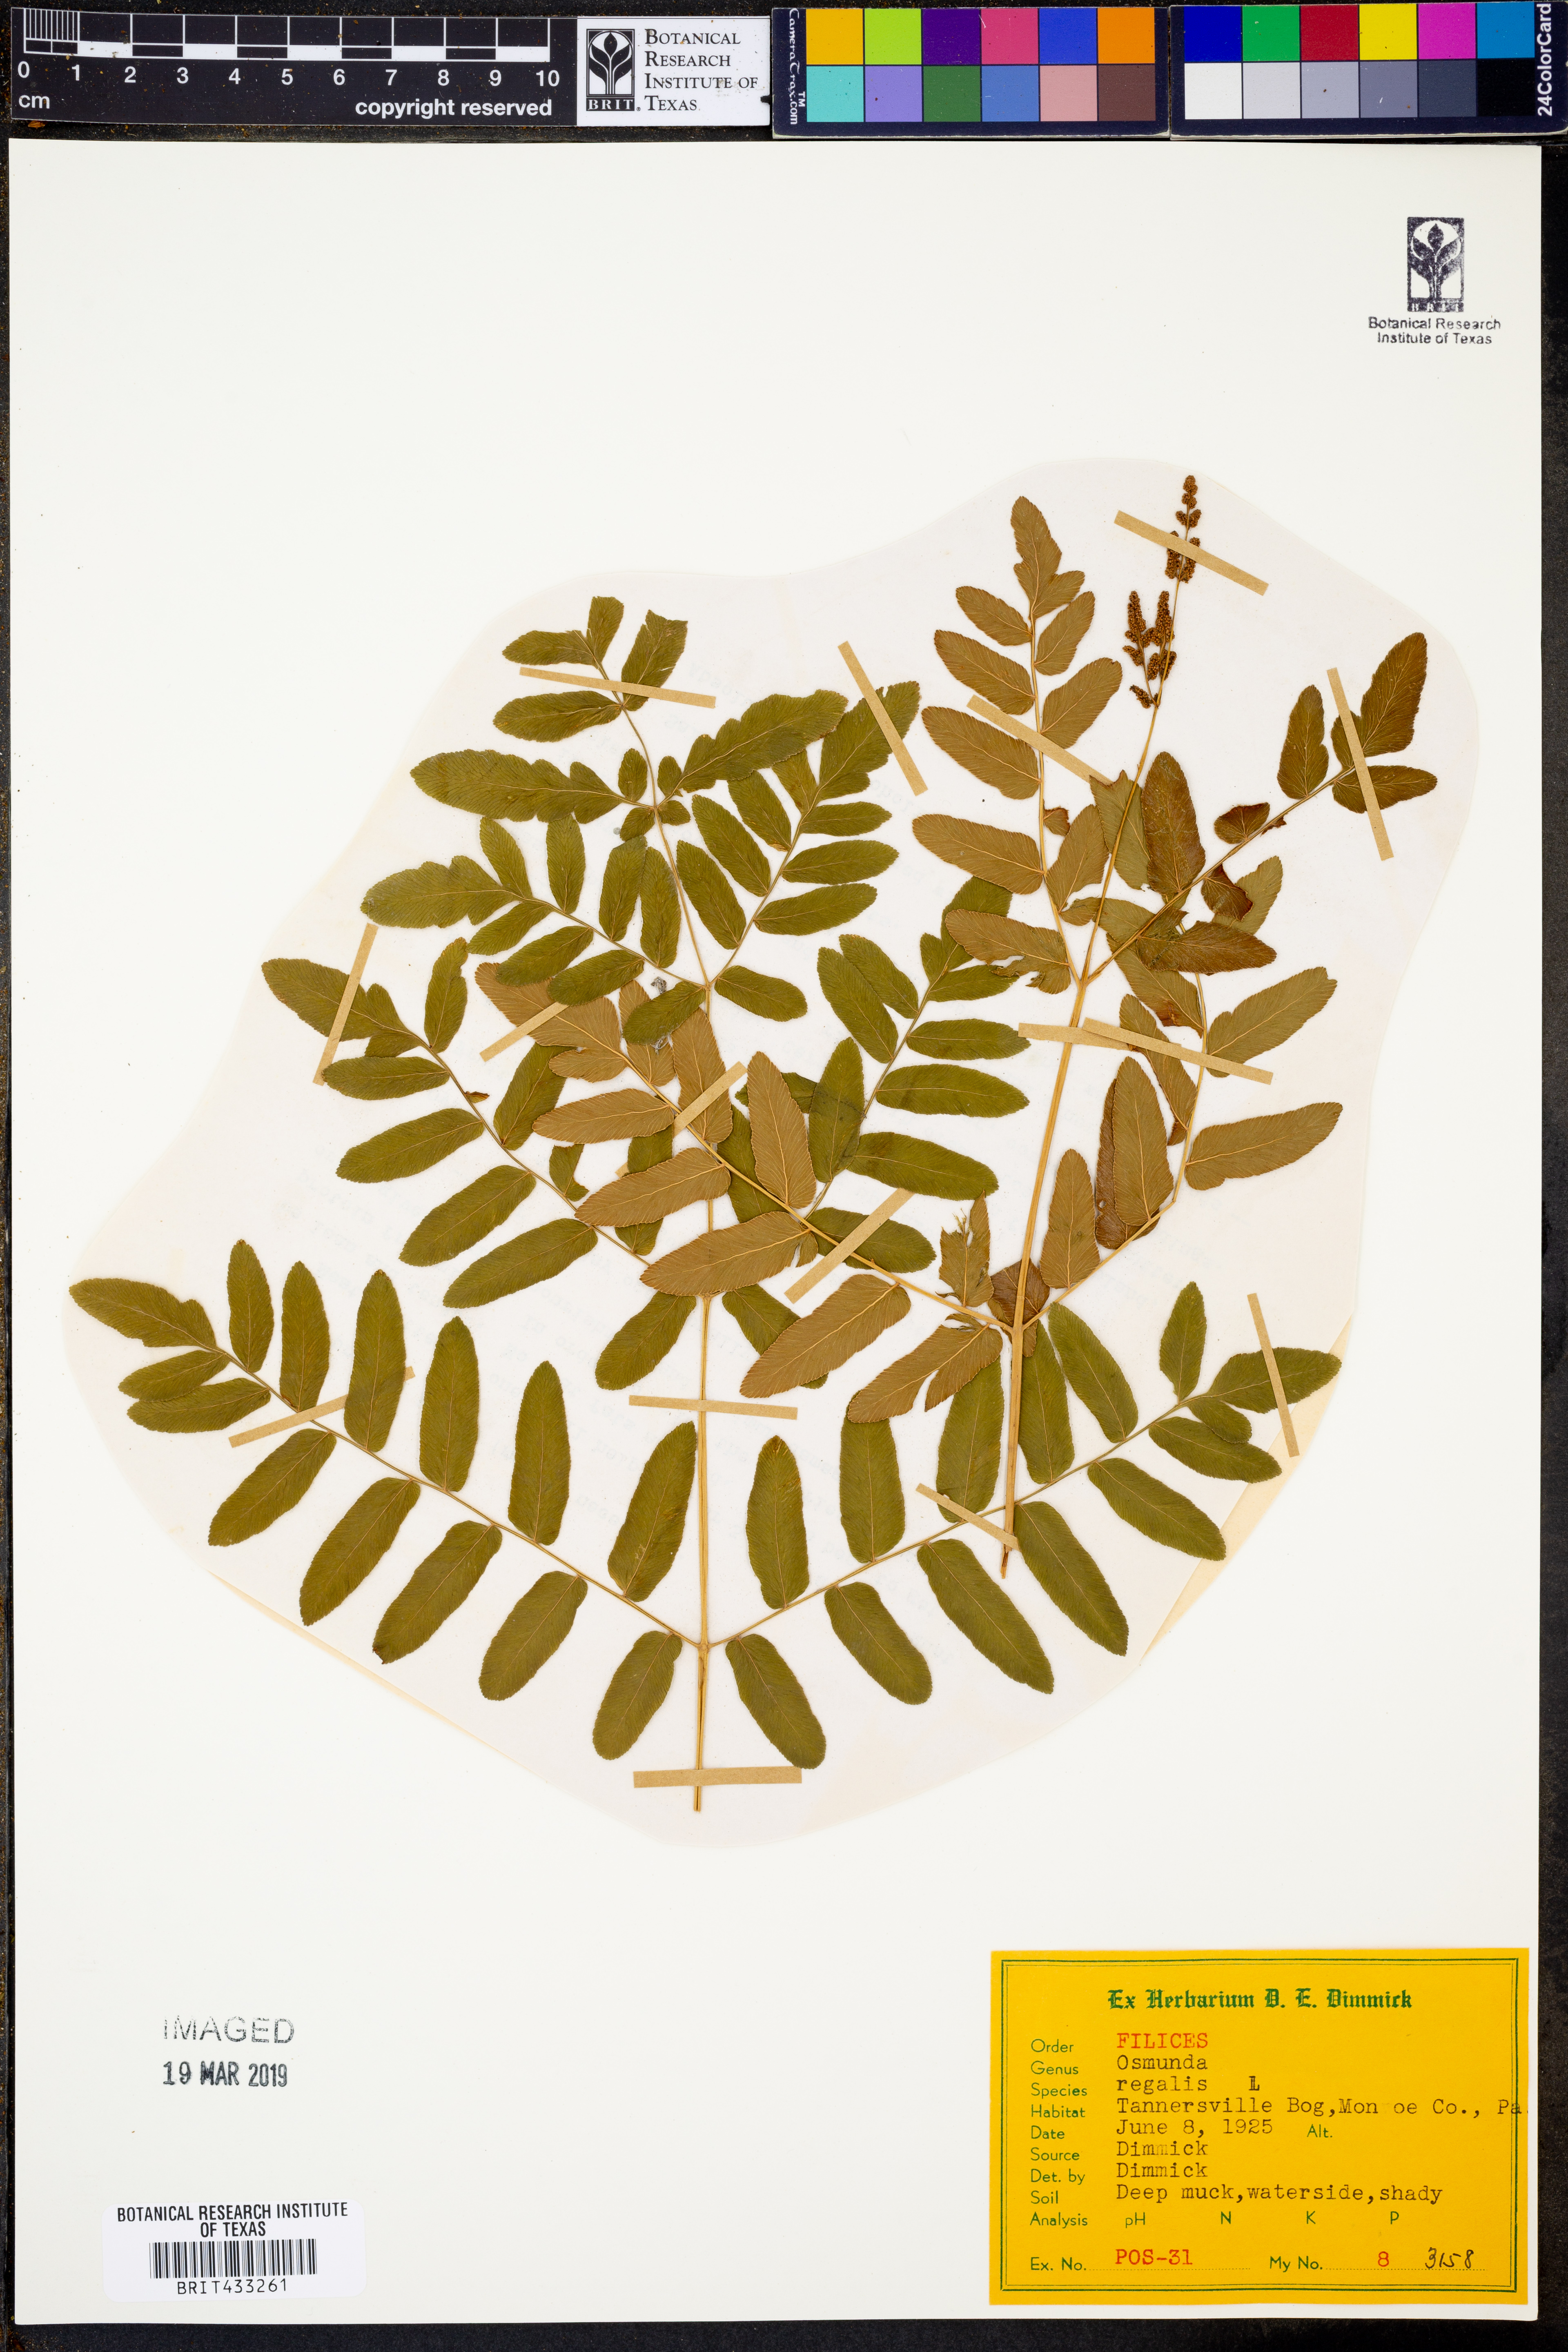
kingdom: Plantae
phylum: Tracheophyta
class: Polypodiopsida
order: Osmundales
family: Osmundaceae
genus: Osmunda
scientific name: Osmunda regalis
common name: Royal fern
